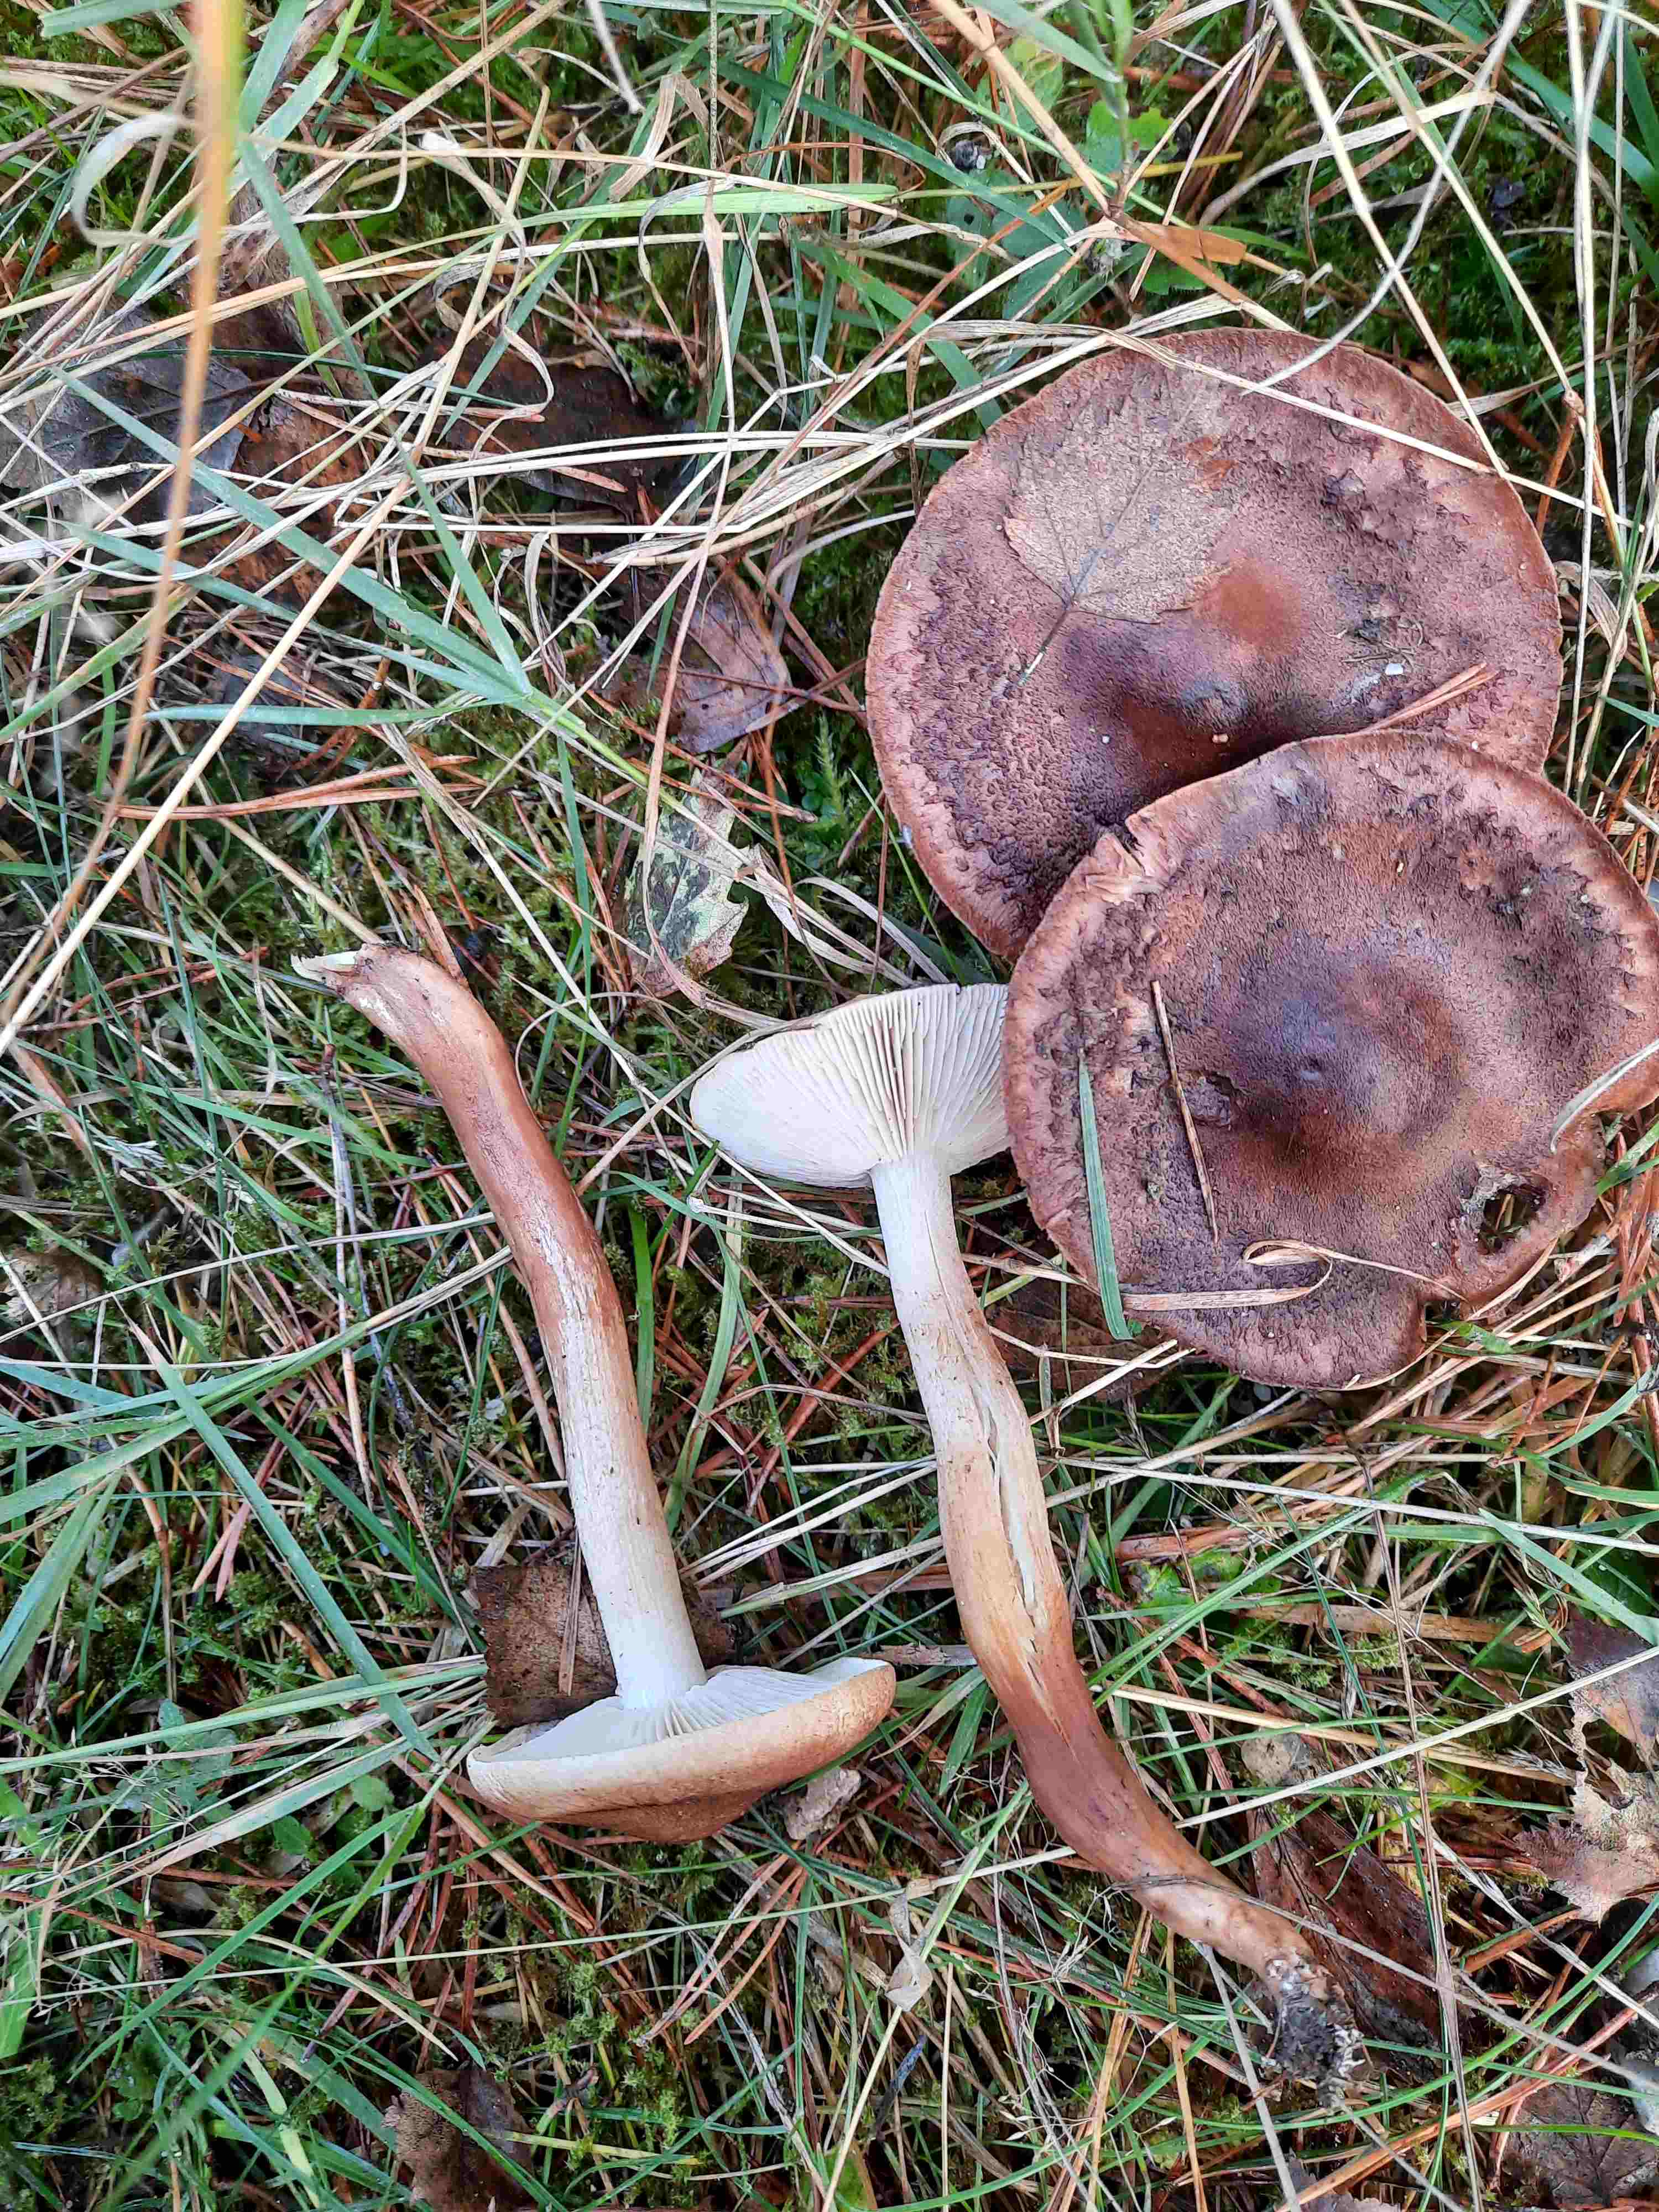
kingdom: Fungi
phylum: Basidiomycota
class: Agaricomycetes
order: Agaricales
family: Tricholomataceae
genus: Tricholoma
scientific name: Tricholoma imbricatum
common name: skællet ridderhat
